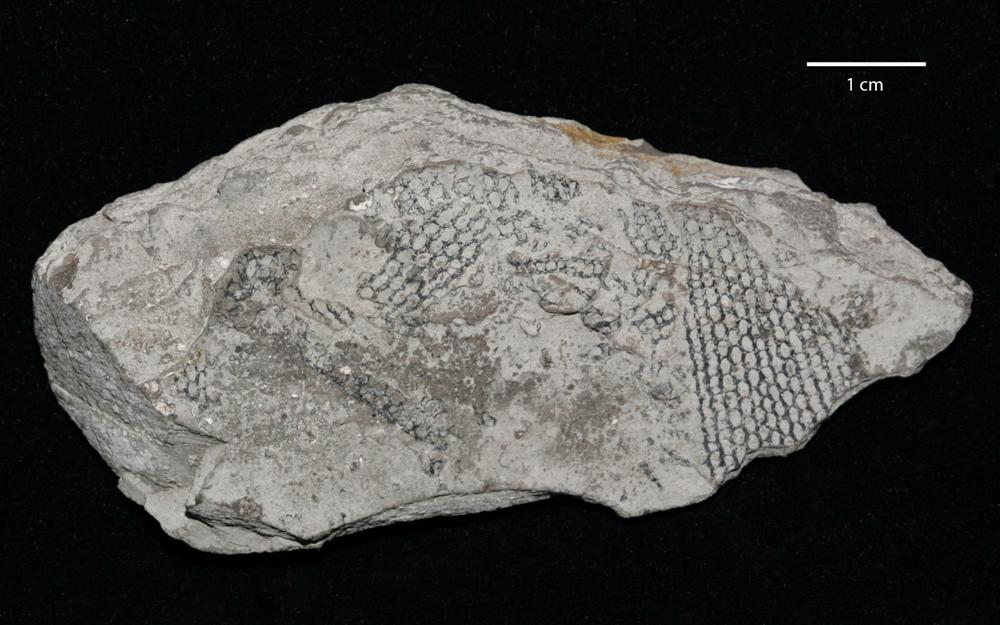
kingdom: Animalia
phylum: Hemichordata
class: Pterobranchia
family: Anisograptidae
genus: Rhabdinopora
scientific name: Rhabdinopora
